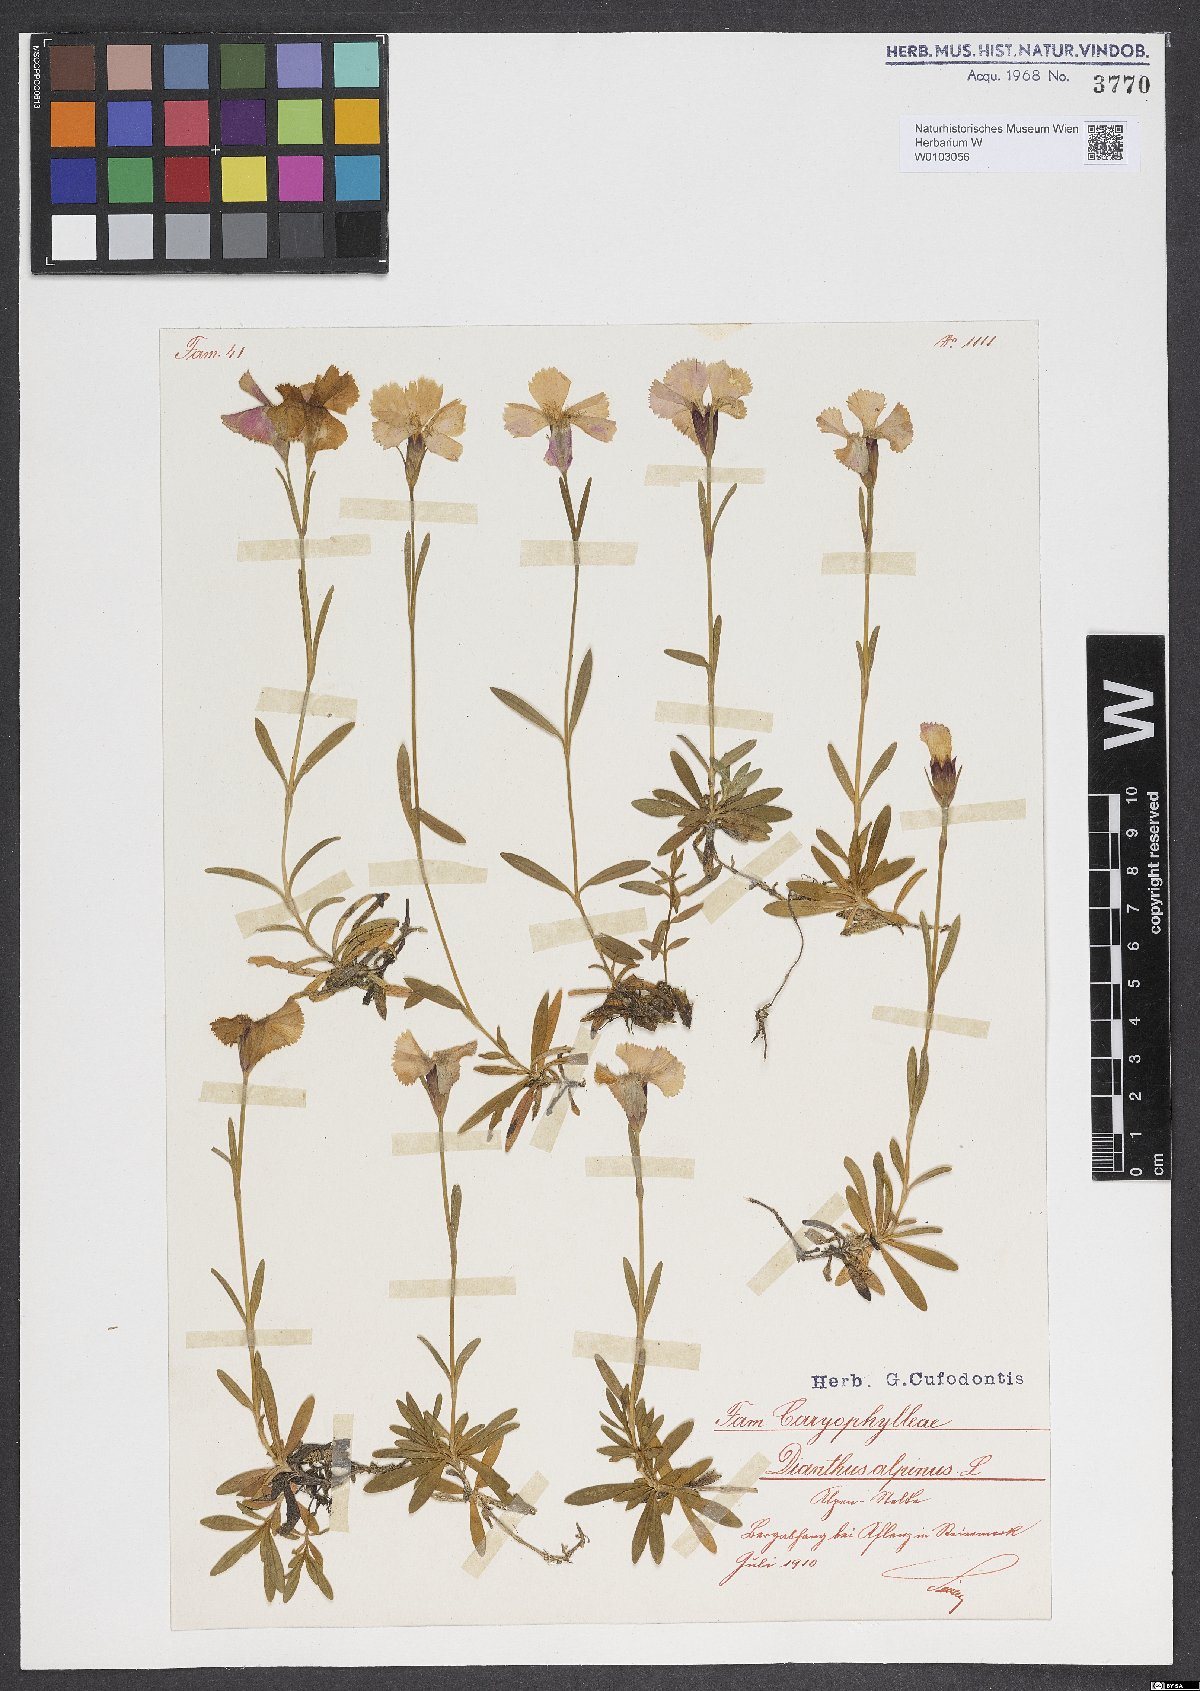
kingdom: Plantae
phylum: Tracheophyta
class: Magnoliopsida
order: Caryophyllales
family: Caryophyllaceae
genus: Dianthus
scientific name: Dianthus alpinus
